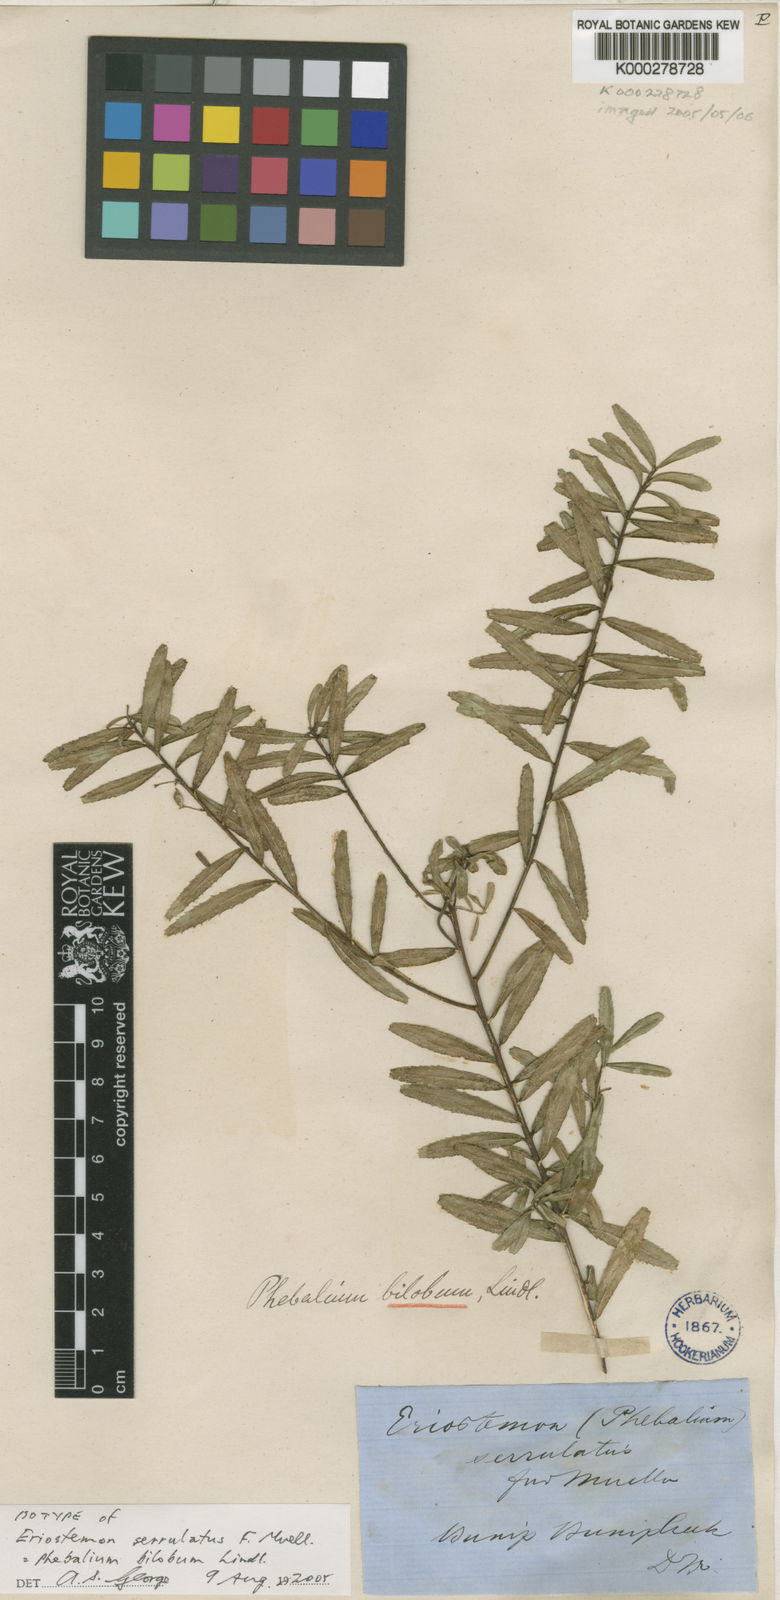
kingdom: Plantae
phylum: Tracheophyta
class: Magnoliopsida
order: Sapindales
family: Rutaceae
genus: Leionema
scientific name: Leionema bilobum
